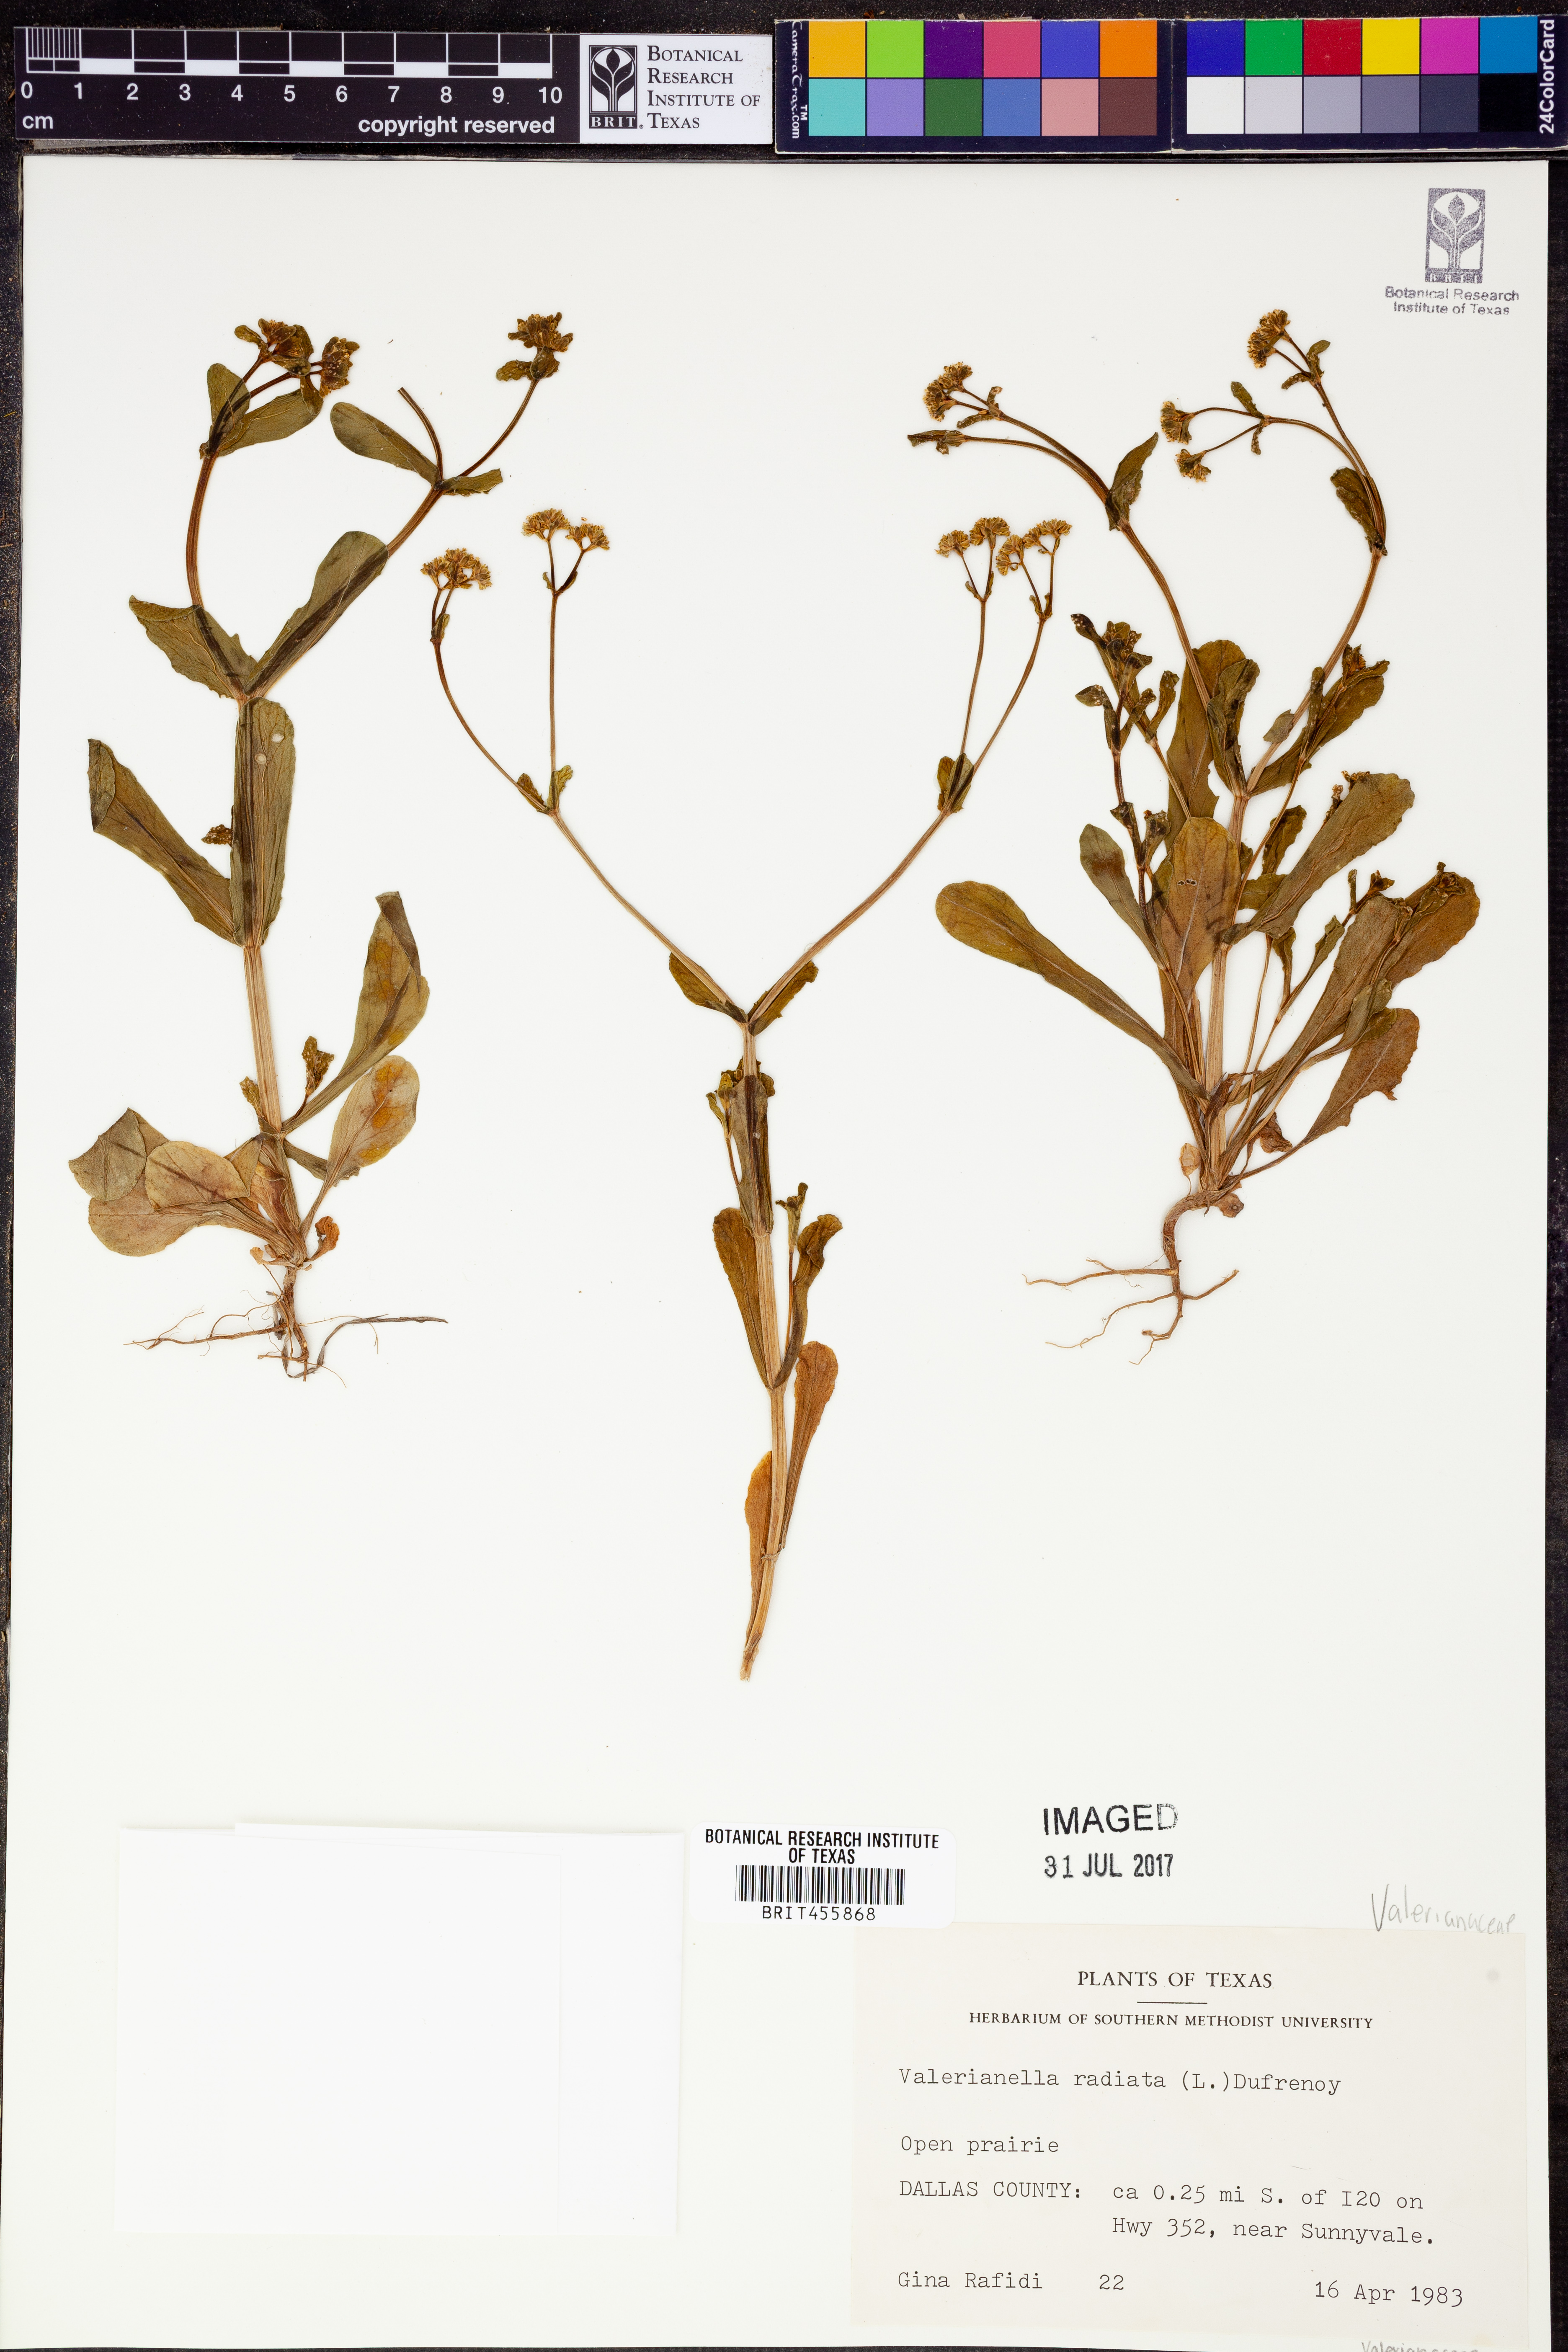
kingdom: Plantae
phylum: Tracheophyta
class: Magnoliopsida
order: Dipsacales
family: Caprifoliaceae
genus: Valerianella
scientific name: Valerianella radiata
